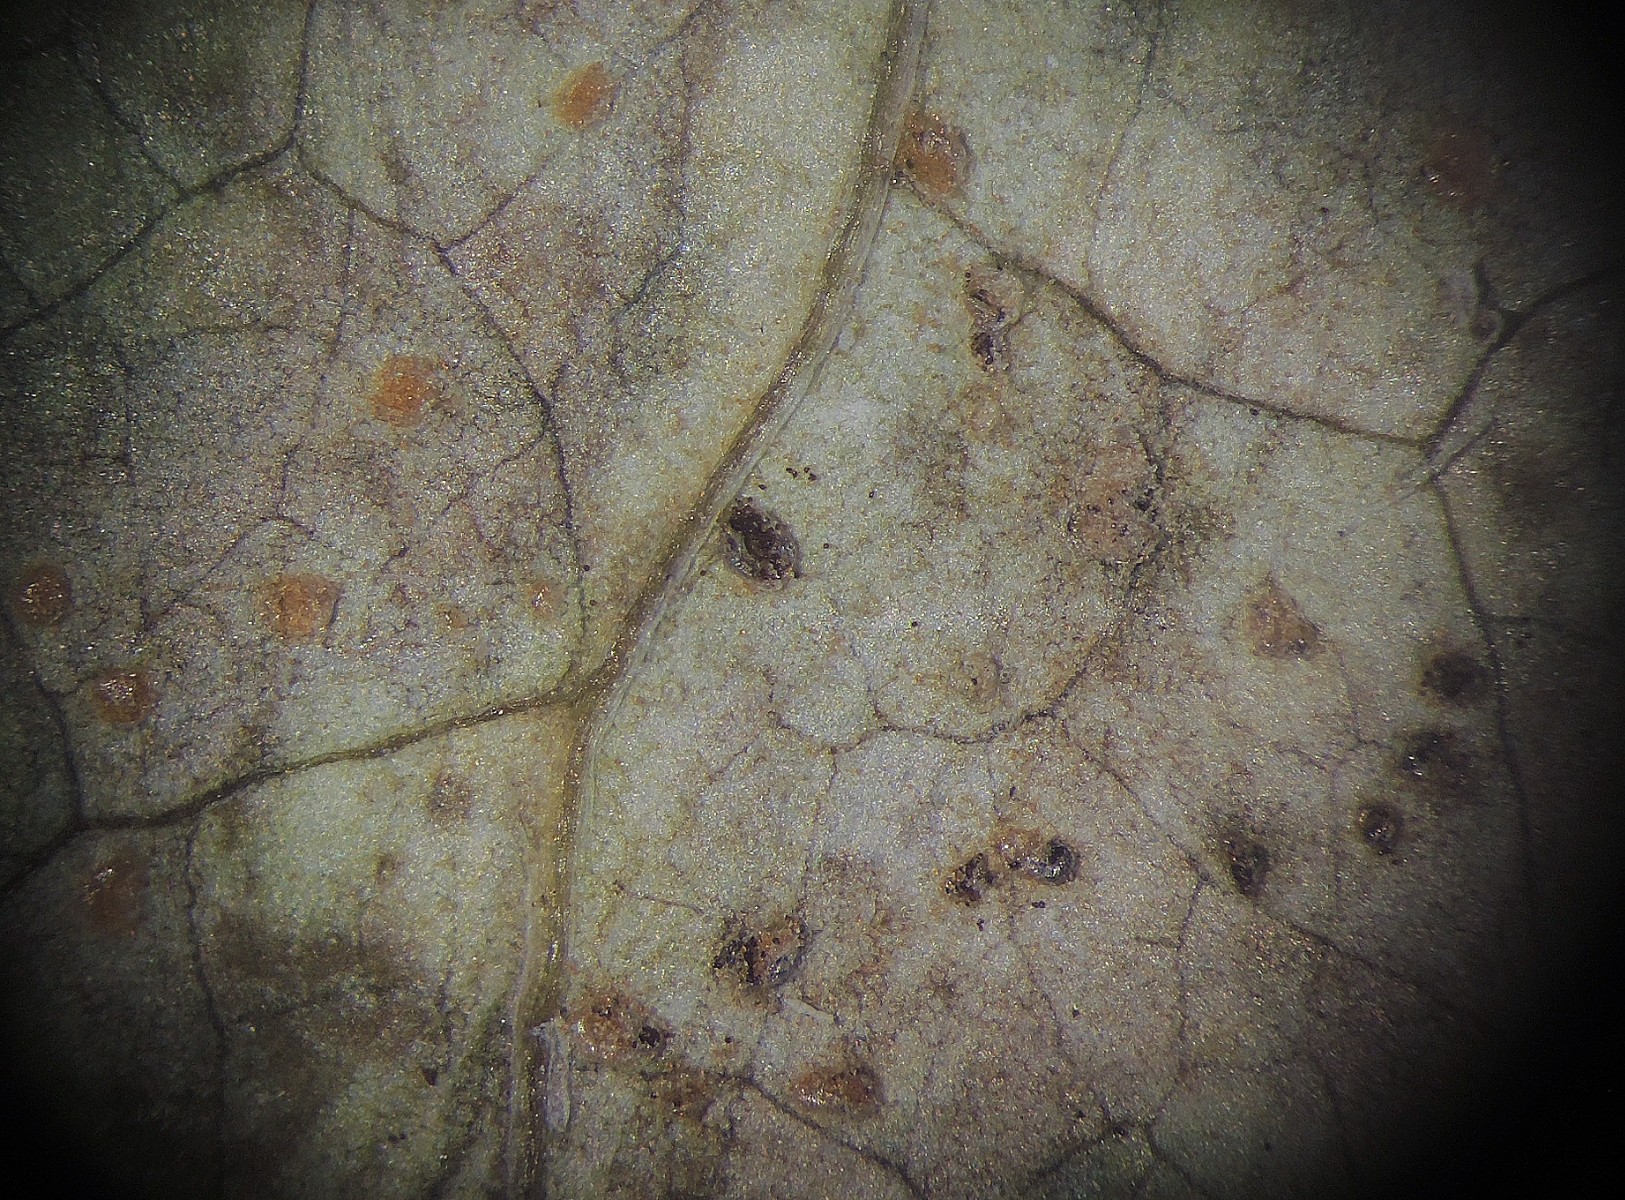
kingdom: Fungi
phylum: Basidiomycota
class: Pucciniomycetes
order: Pucciniales
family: Pucciniaceae
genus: Puccinia
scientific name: Puccinia sonchina
